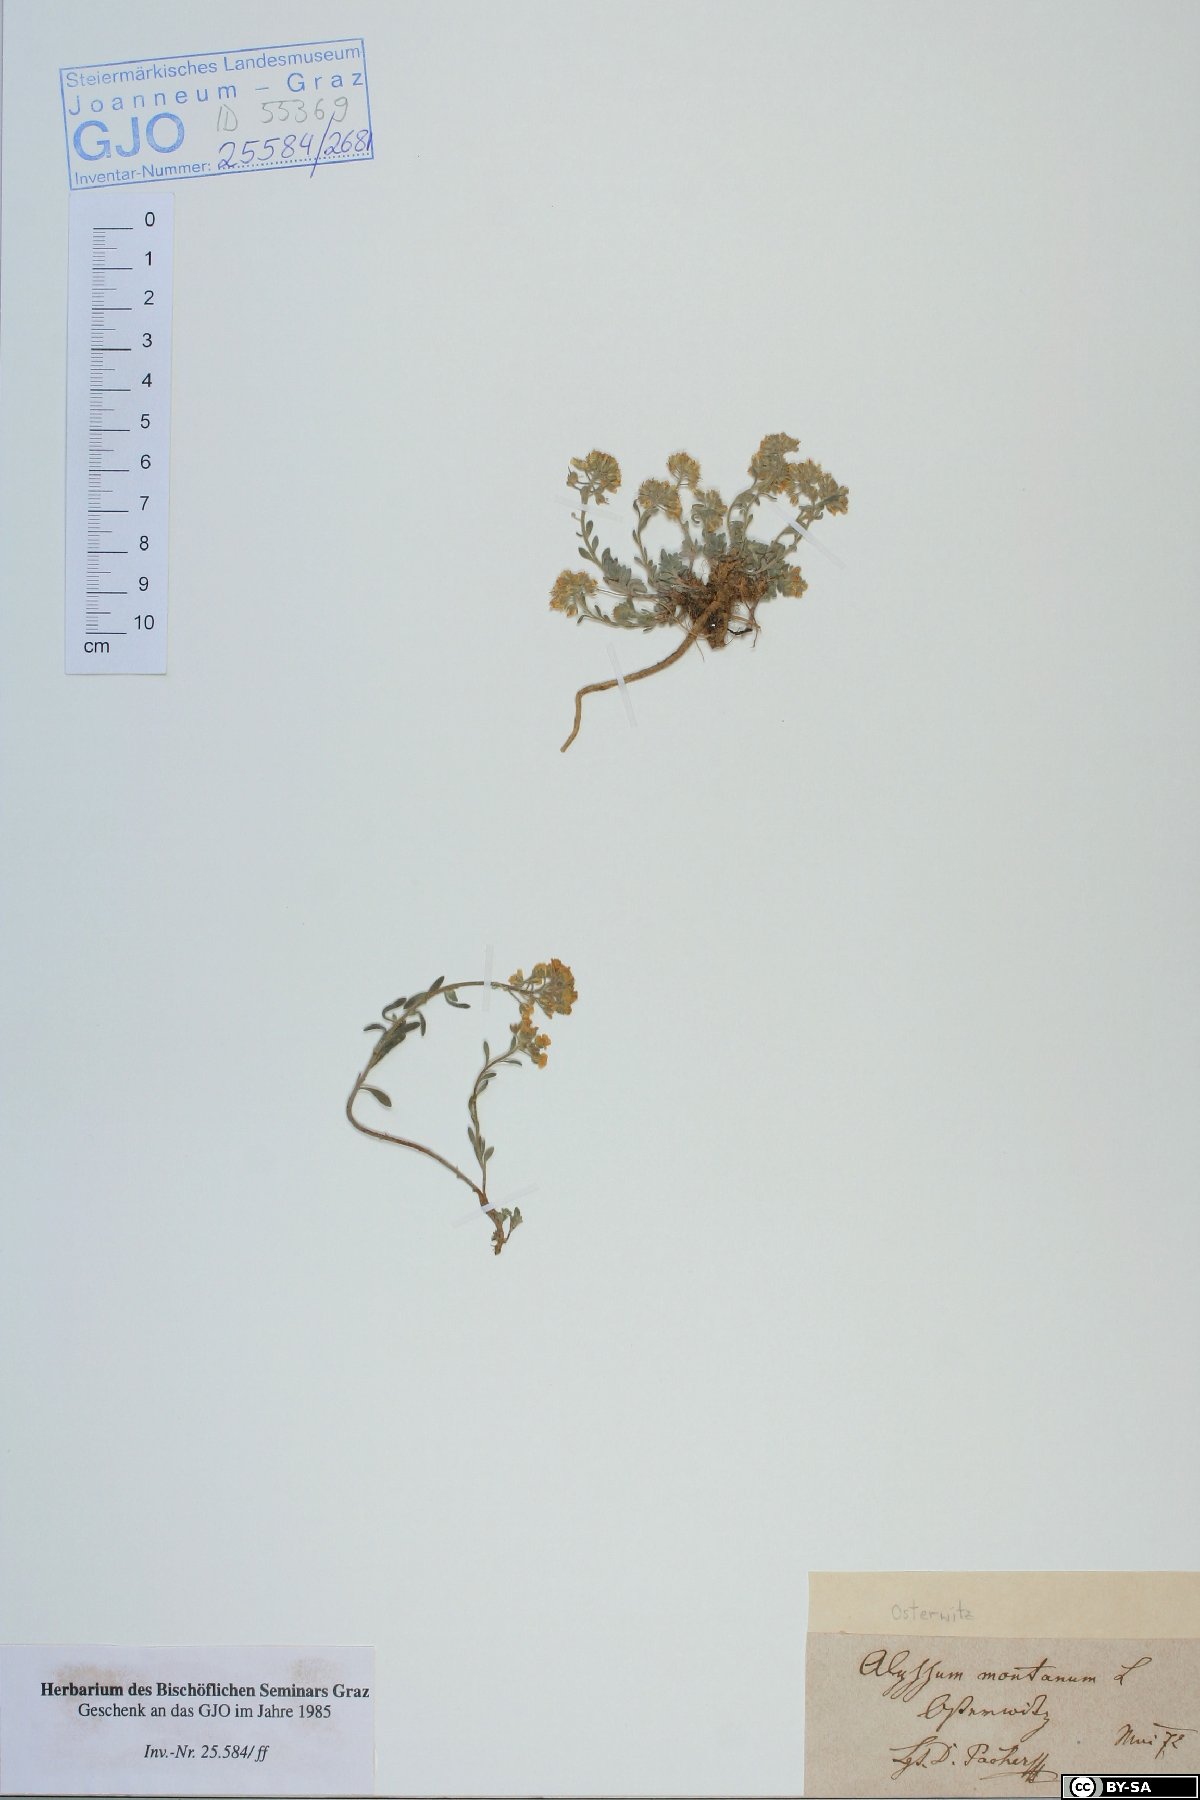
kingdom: Plantae
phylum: Tracheophyta
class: Magnoliopsida
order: Brassicales
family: Brassicaceae
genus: Alyssum
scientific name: Alyssum montanum
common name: Mountain alison
